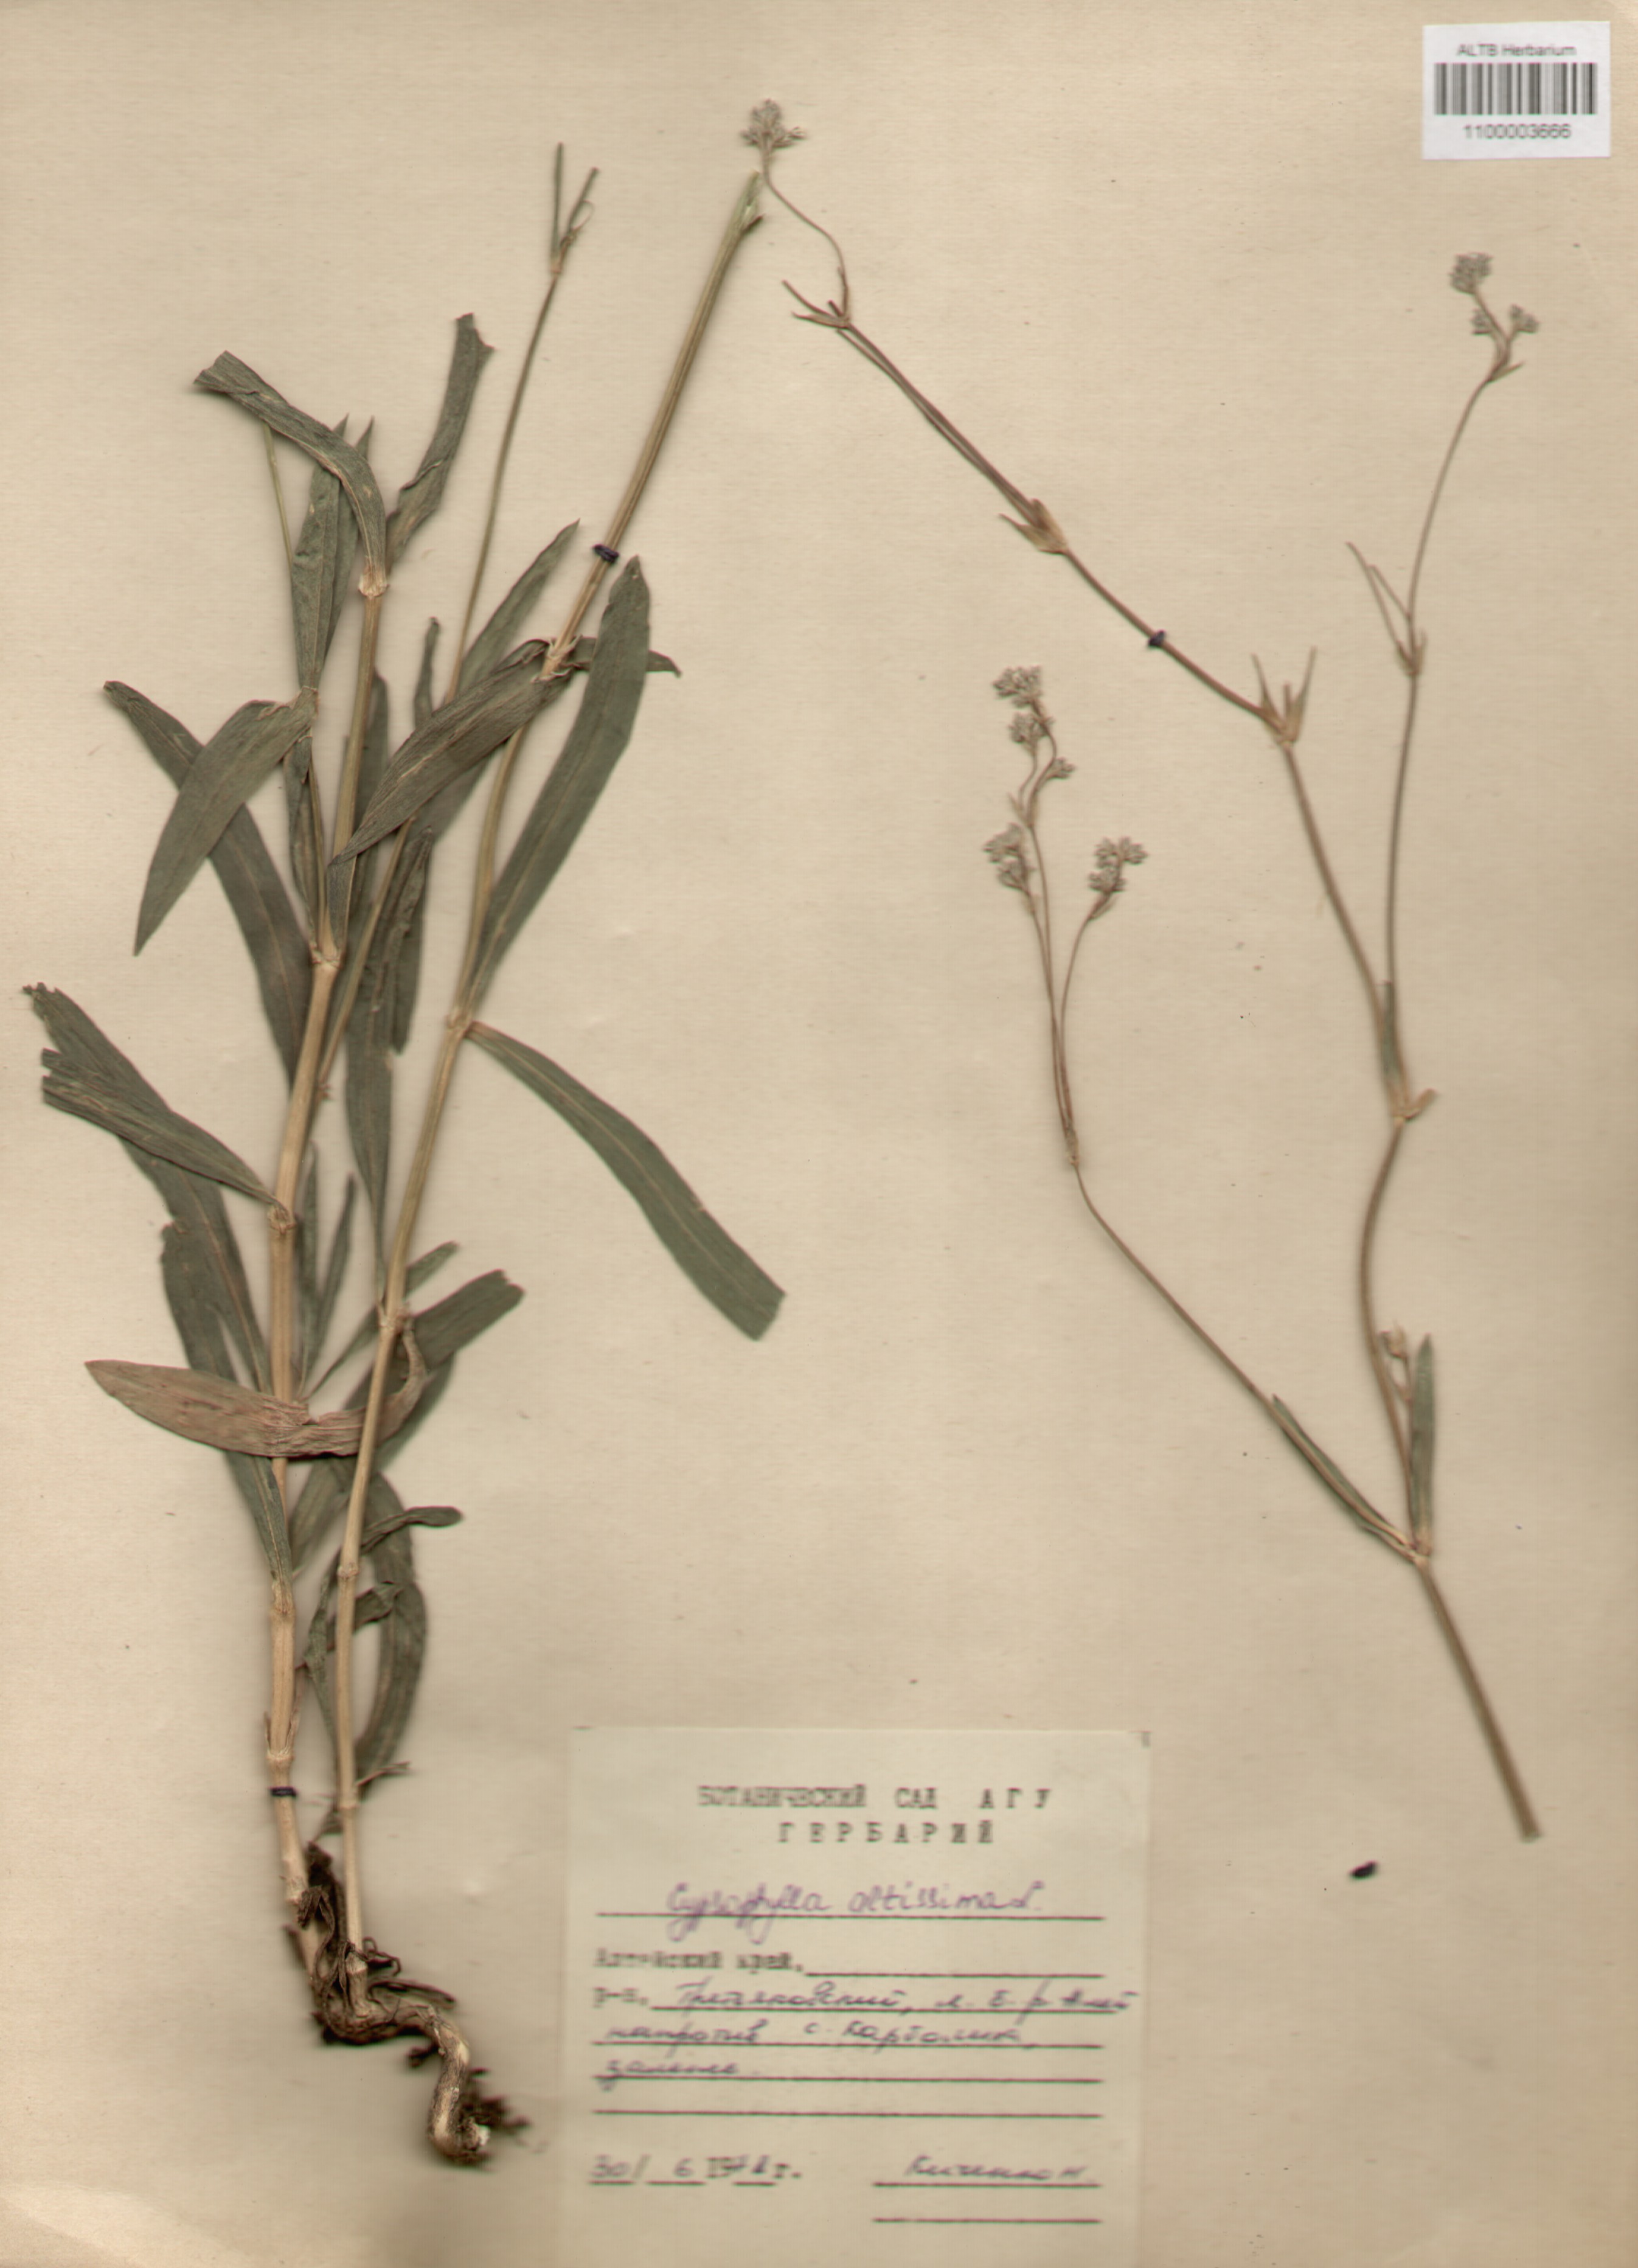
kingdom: Plantae
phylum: Tracheophyta
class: Magnoliopsida
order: Caryophyllales
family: Caryophyllaceae
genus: Gypsophila
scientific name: Gypsophila altissima
